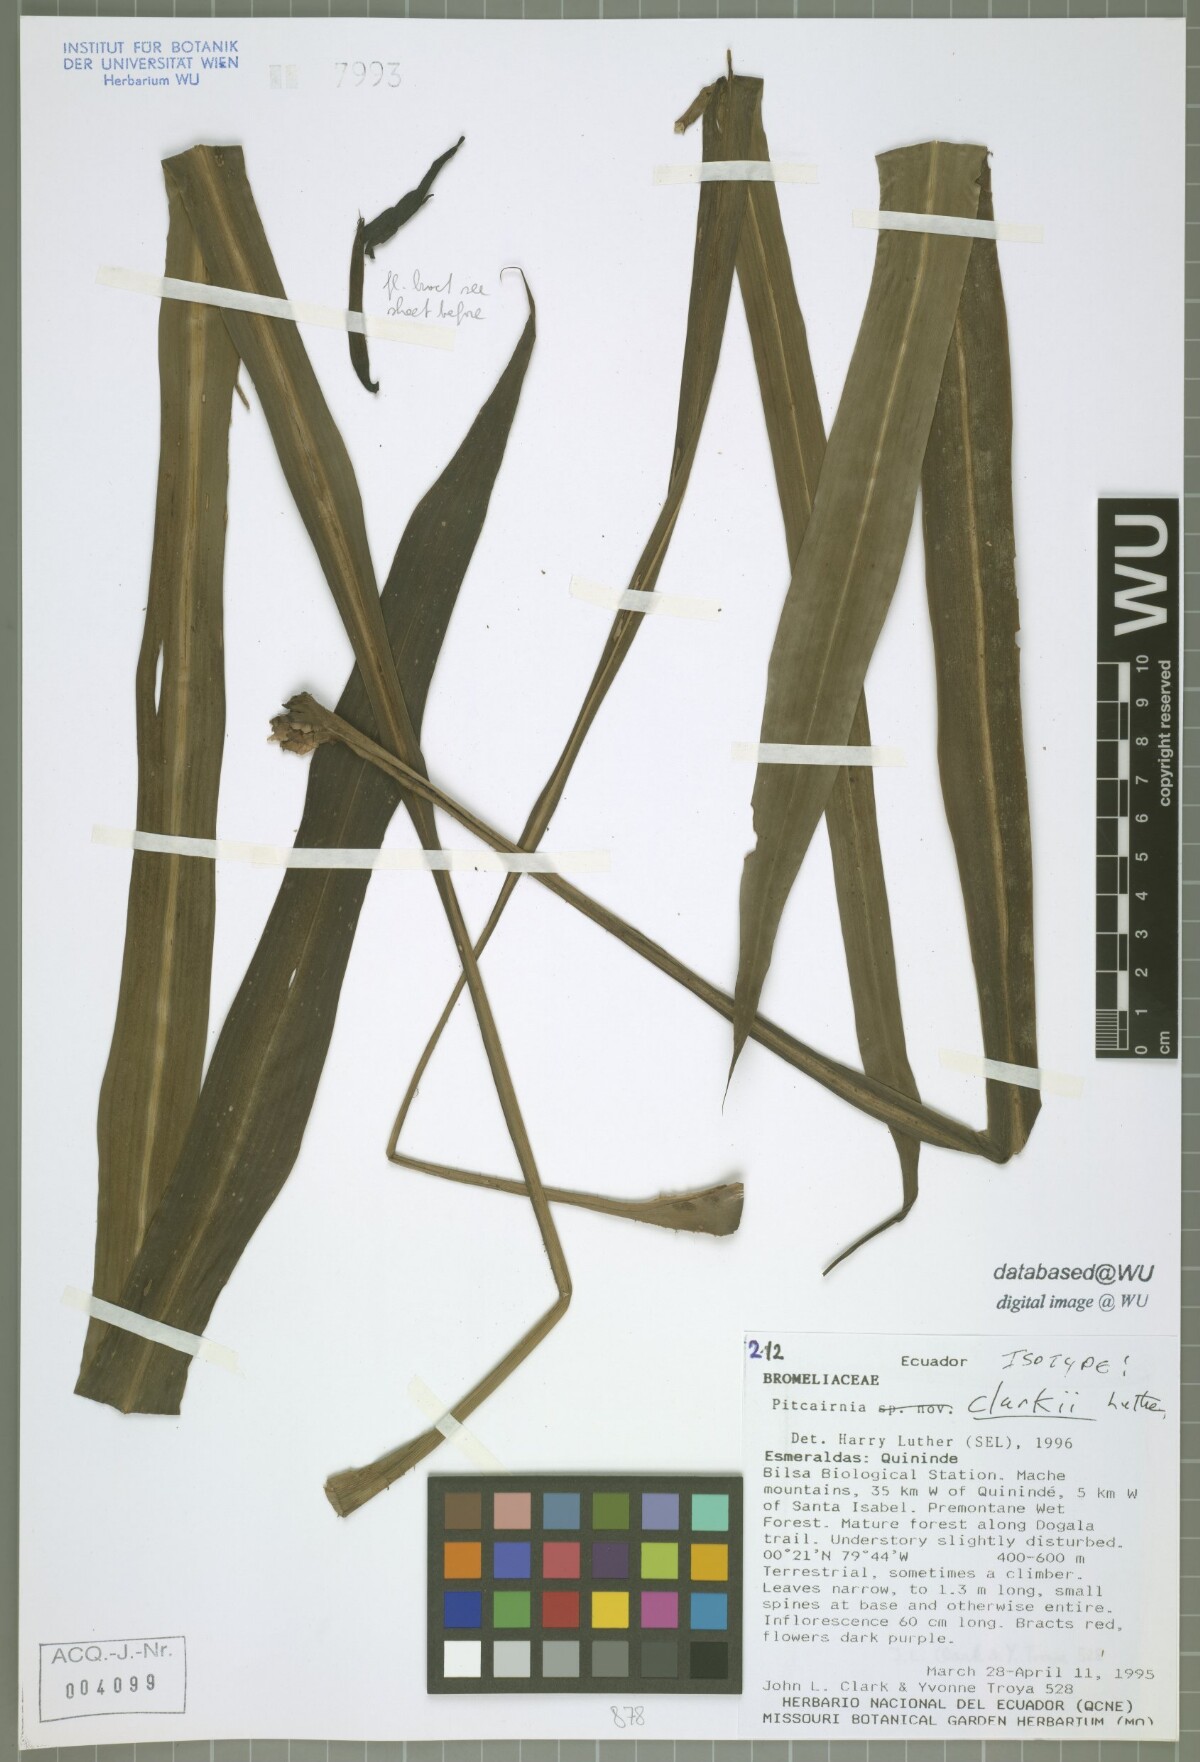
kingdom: Plantae
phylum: Tracheophyta
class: Liliopsida
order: Poales
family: Bromeliaceae
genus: Pitcairnia
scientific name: Pitcairnia clarkii
